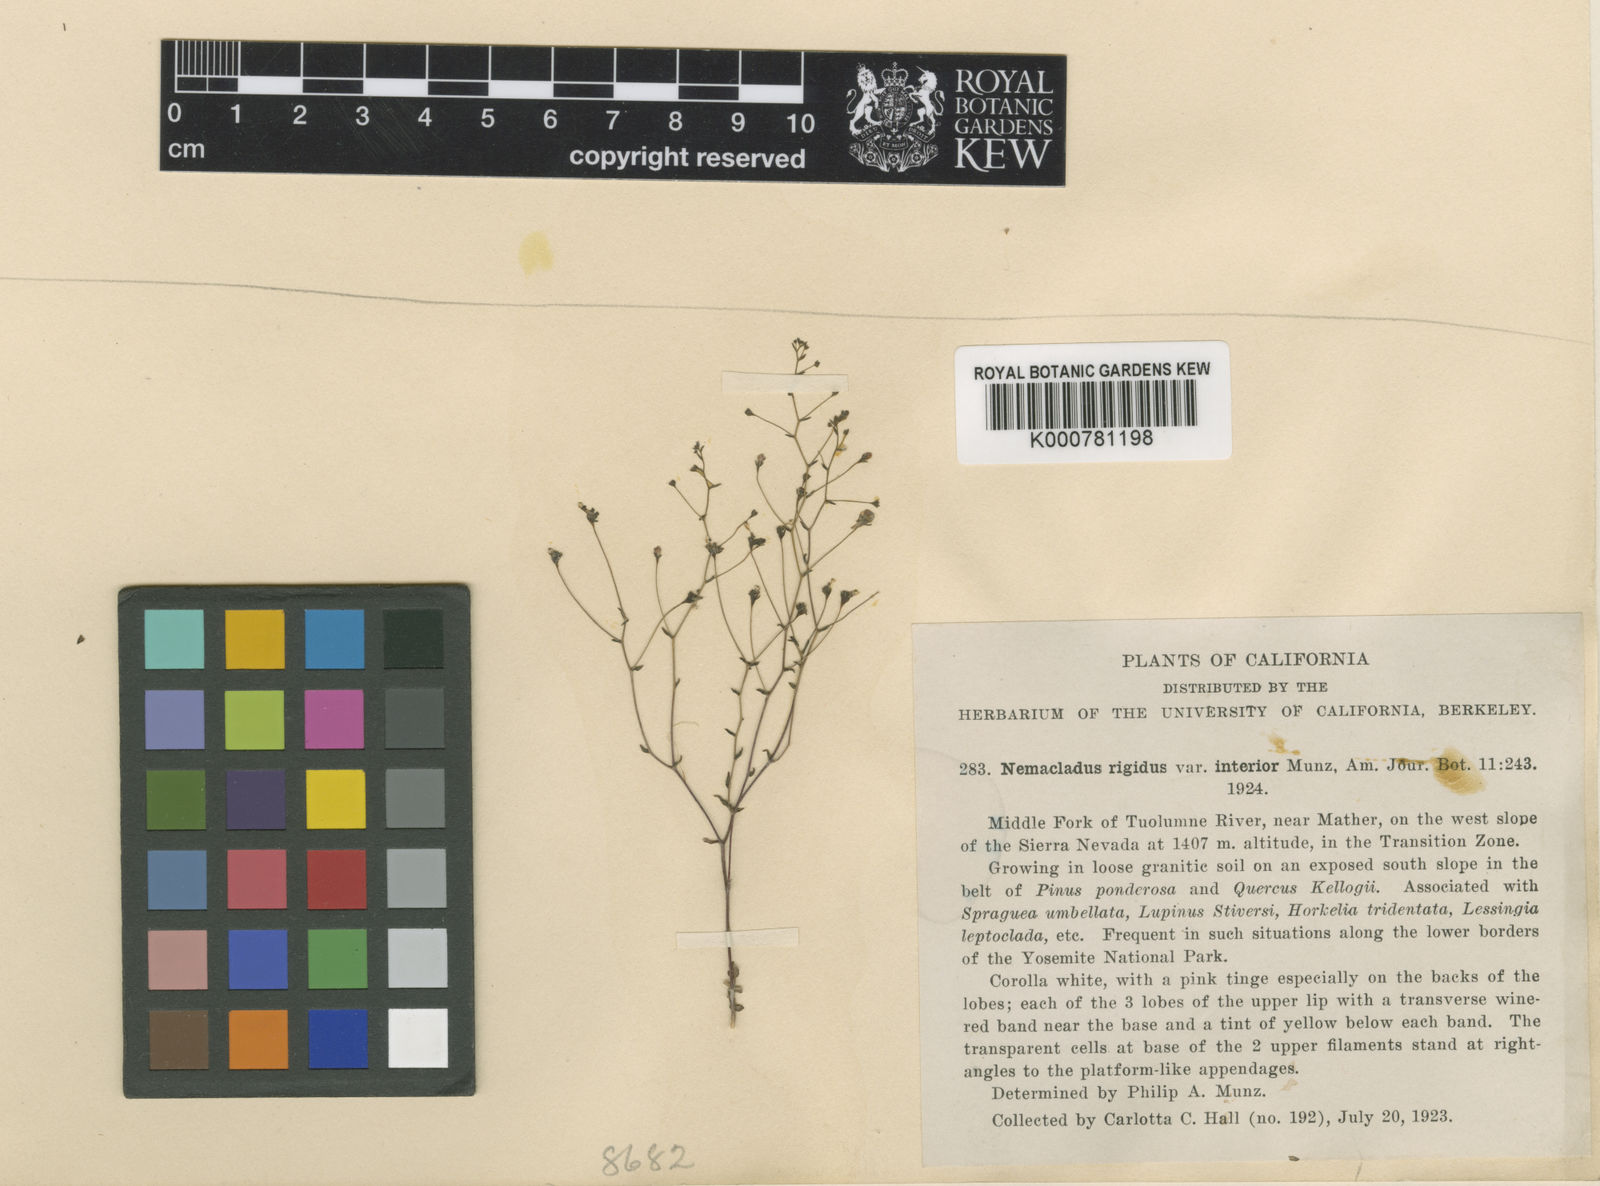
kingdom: Plantae
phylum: Tracheophyta
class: Magnoliopsida
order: Asterales
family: Campanulaceae
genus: Nemacladus
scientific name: Nemacladus rigidus
